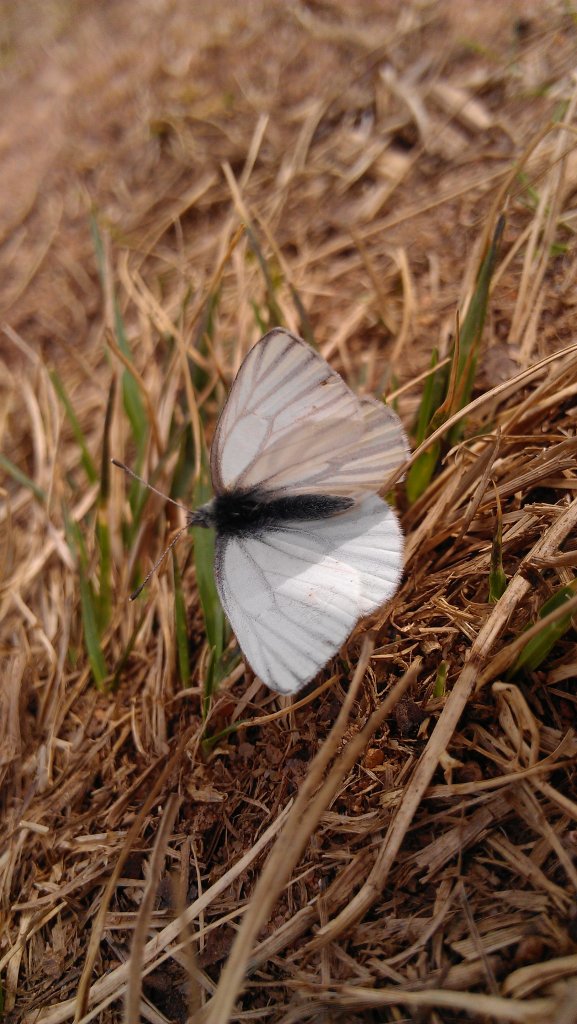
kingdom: Animalia
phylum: Arthropoda
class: Insecta
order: Lepidoptera
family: Pieridae
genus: Pieris
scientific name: Pieris oleracea
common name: Mustard White
